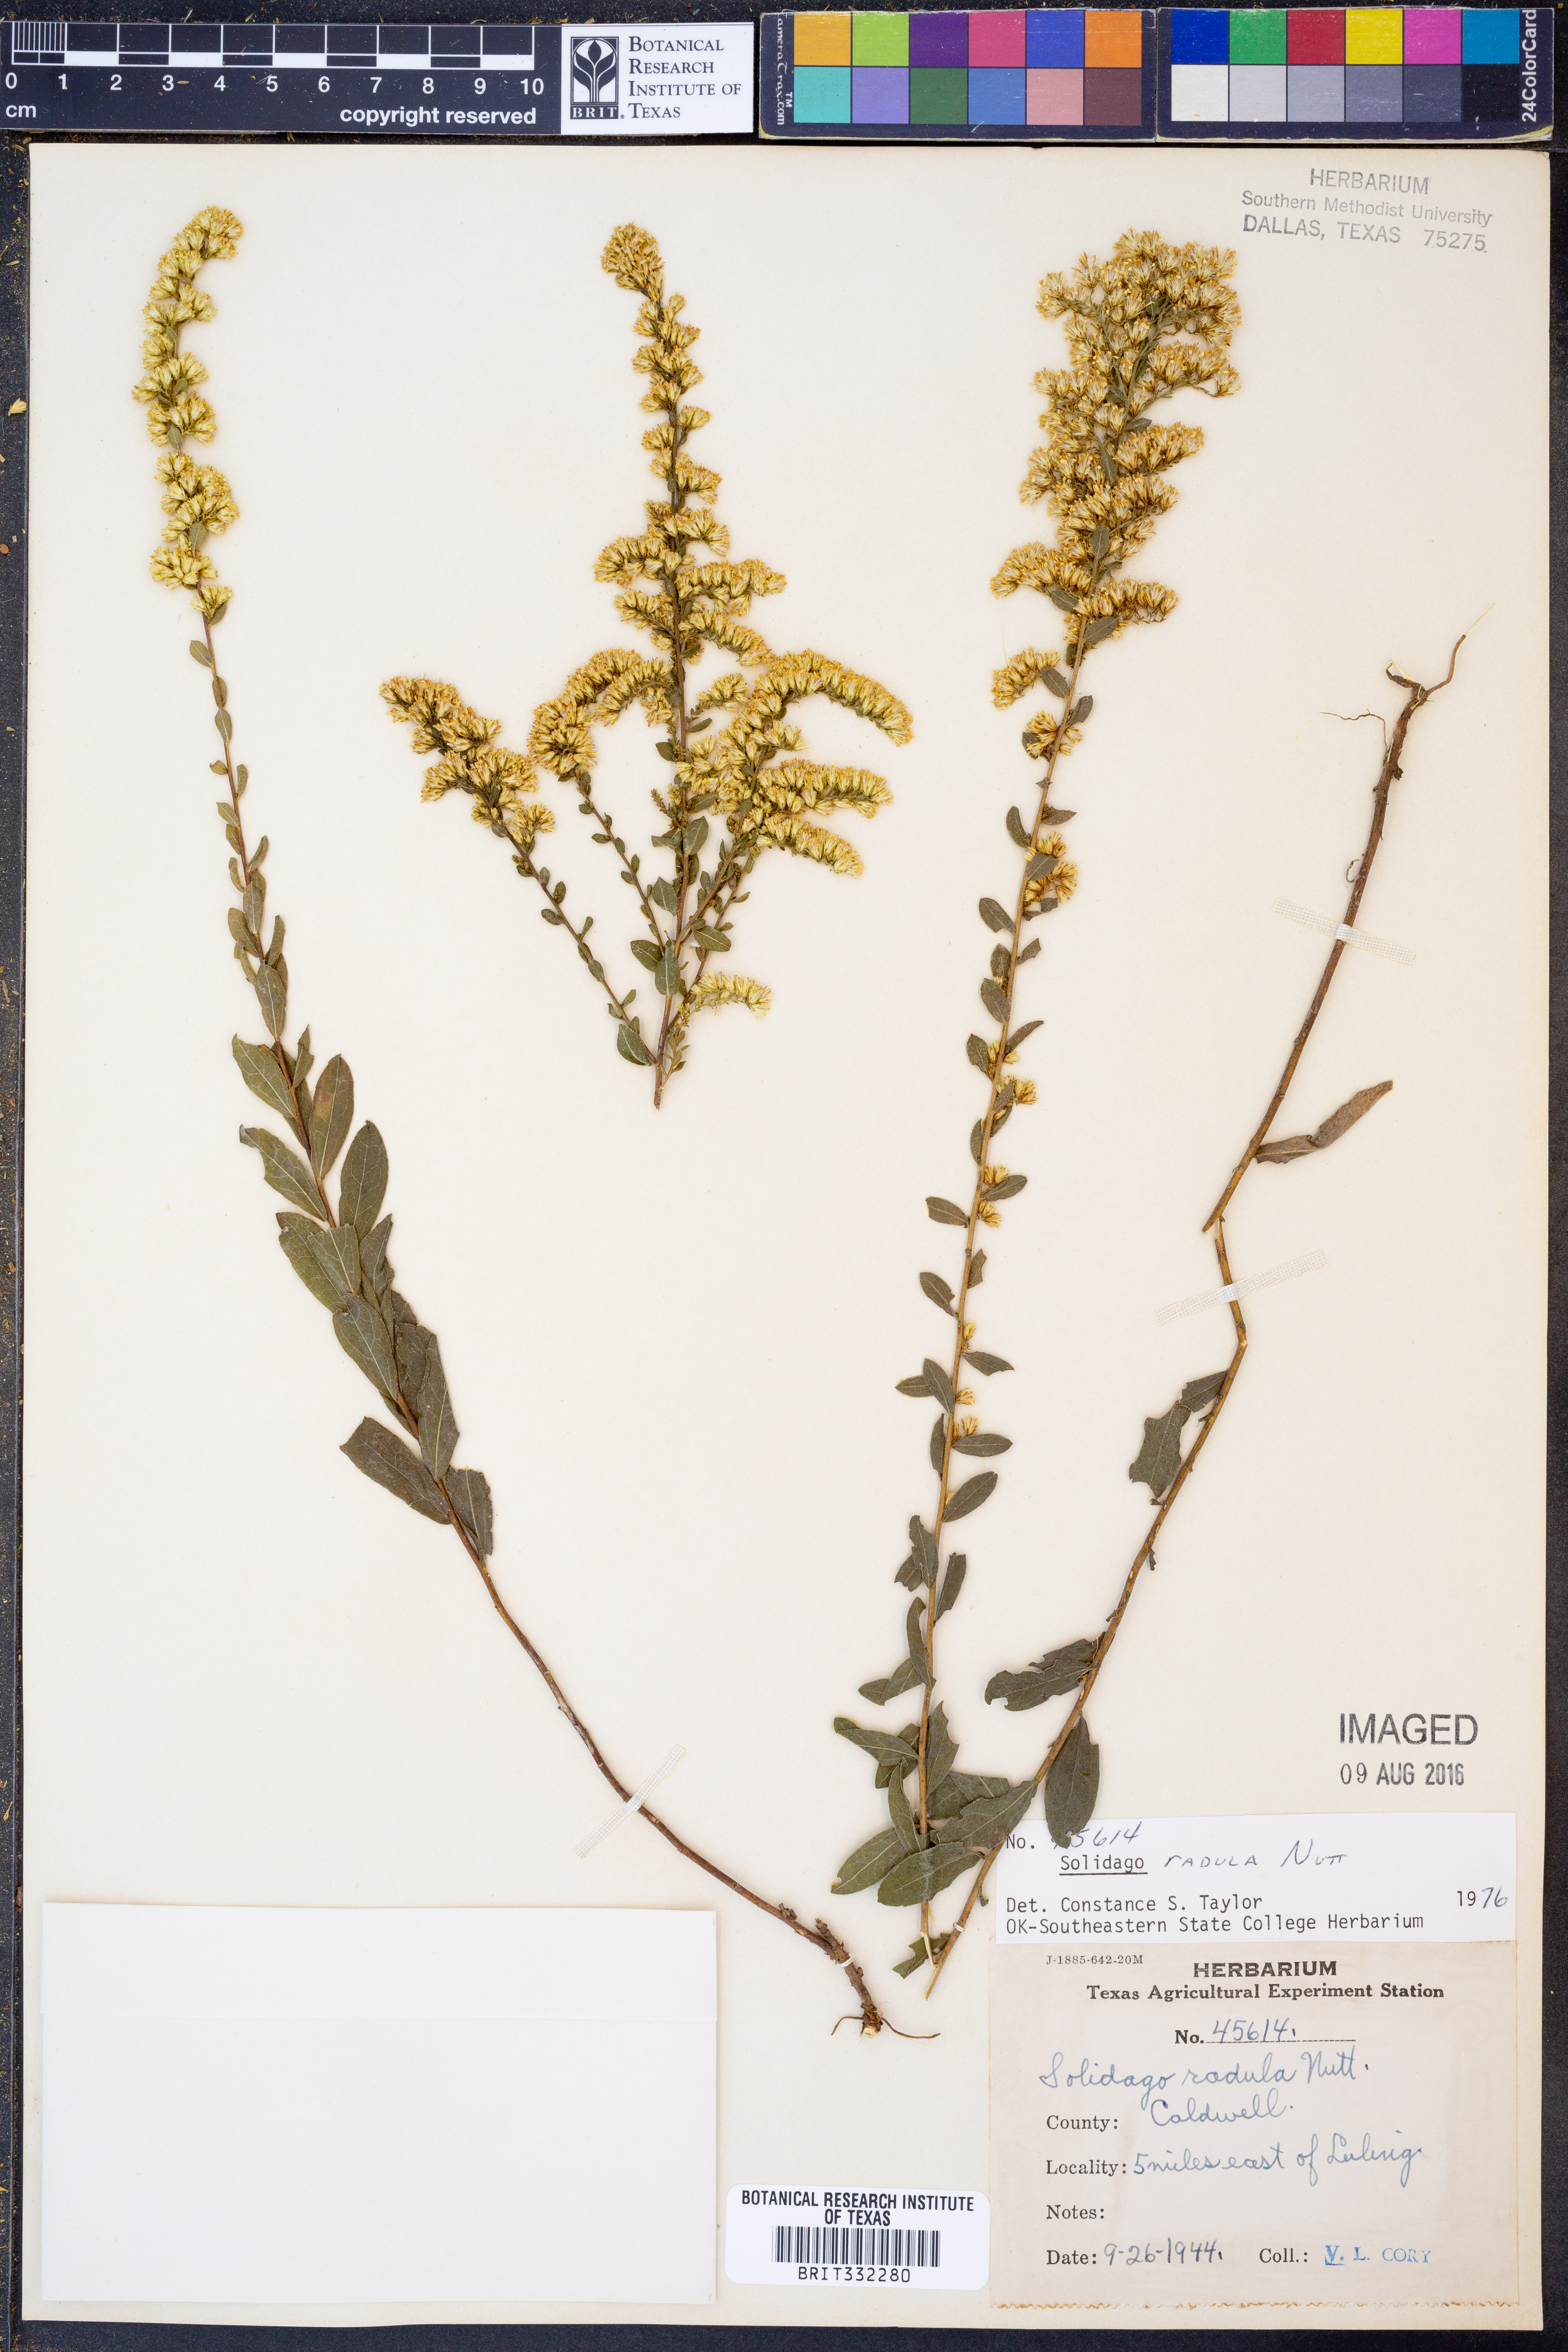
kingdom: Plantae
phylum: Tracheophyta
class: Magnoliopsida
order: Asterales
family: Asteraceae
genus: Solidago
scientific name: Solidago radula
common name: Western rough goldenrod
